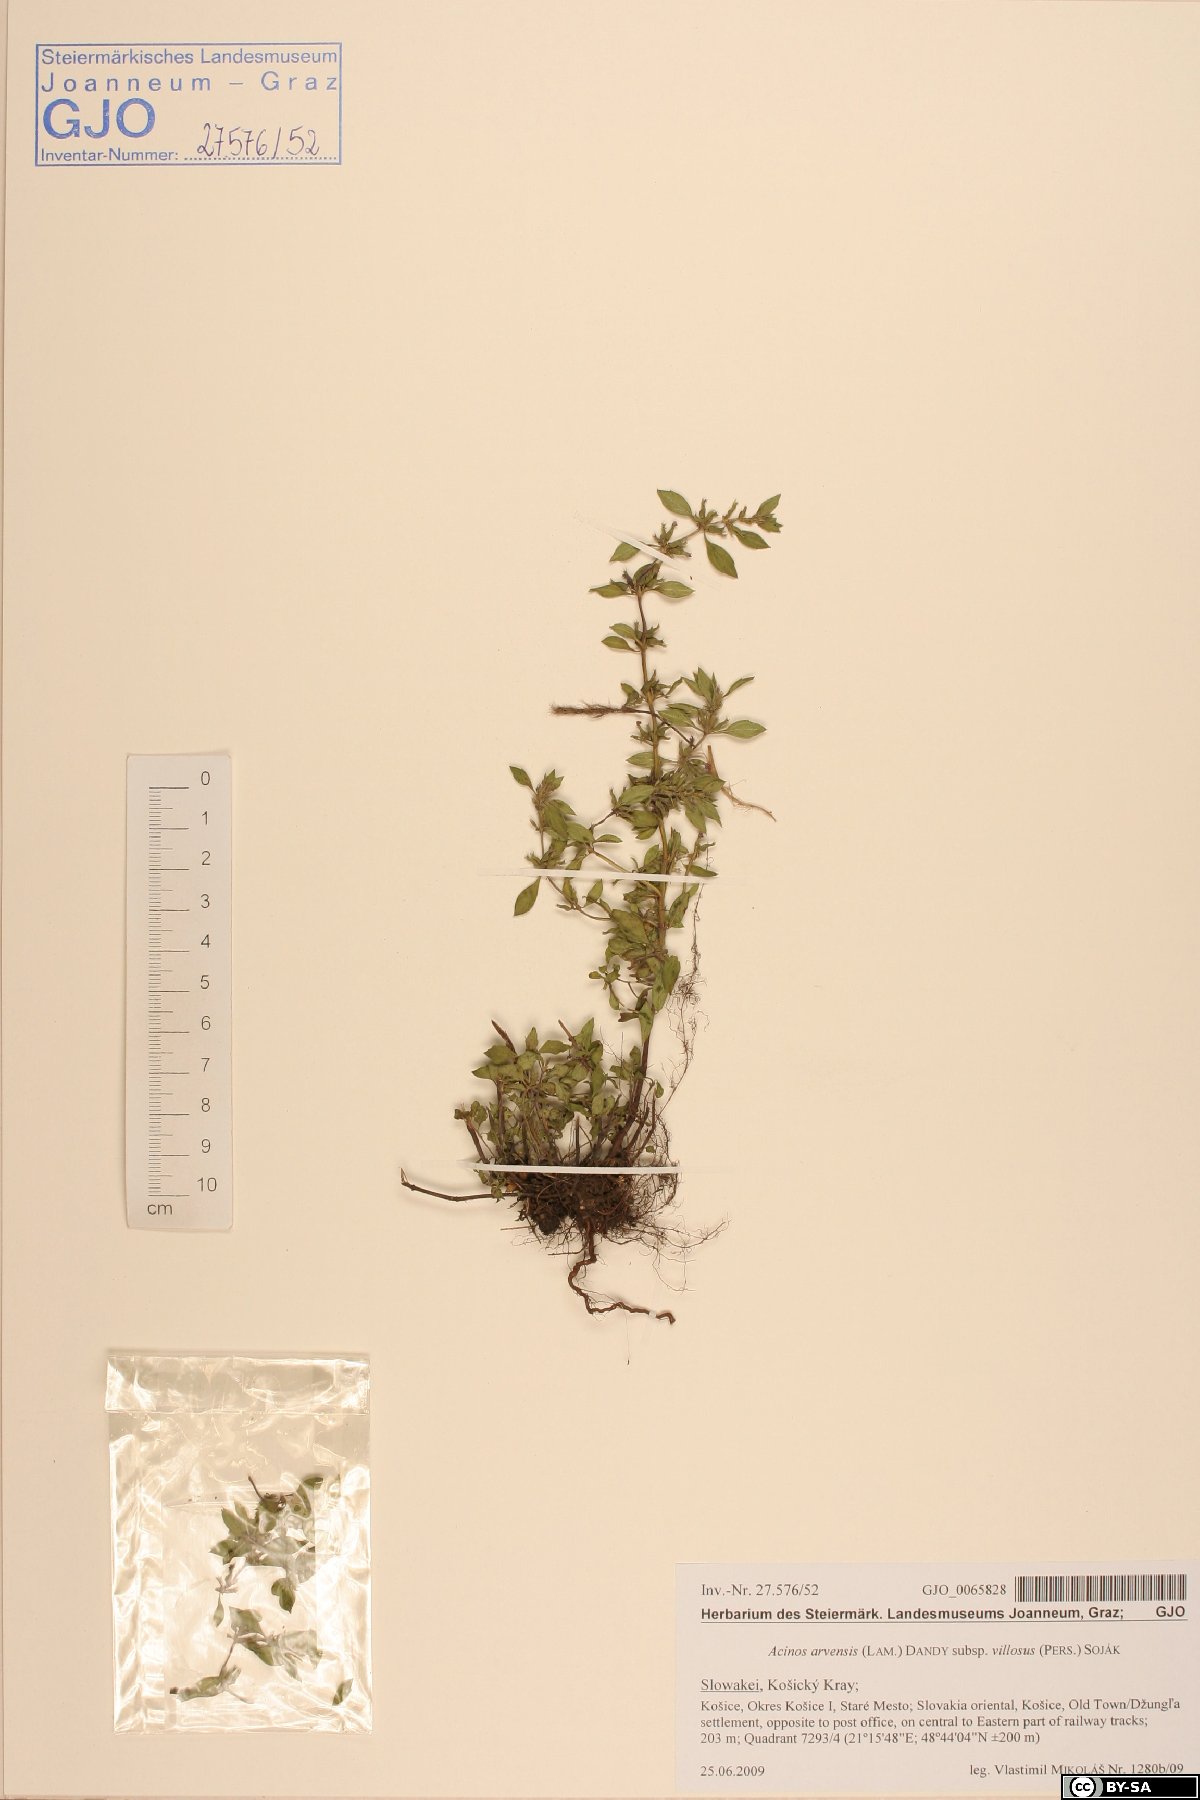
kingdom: Plantae
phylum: Tracheophyta
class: Magnoliopsida
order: Lamiales
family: Lamiaceae
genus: Clinopodium
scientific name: Clinopodium acinos
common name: Basil thyme
